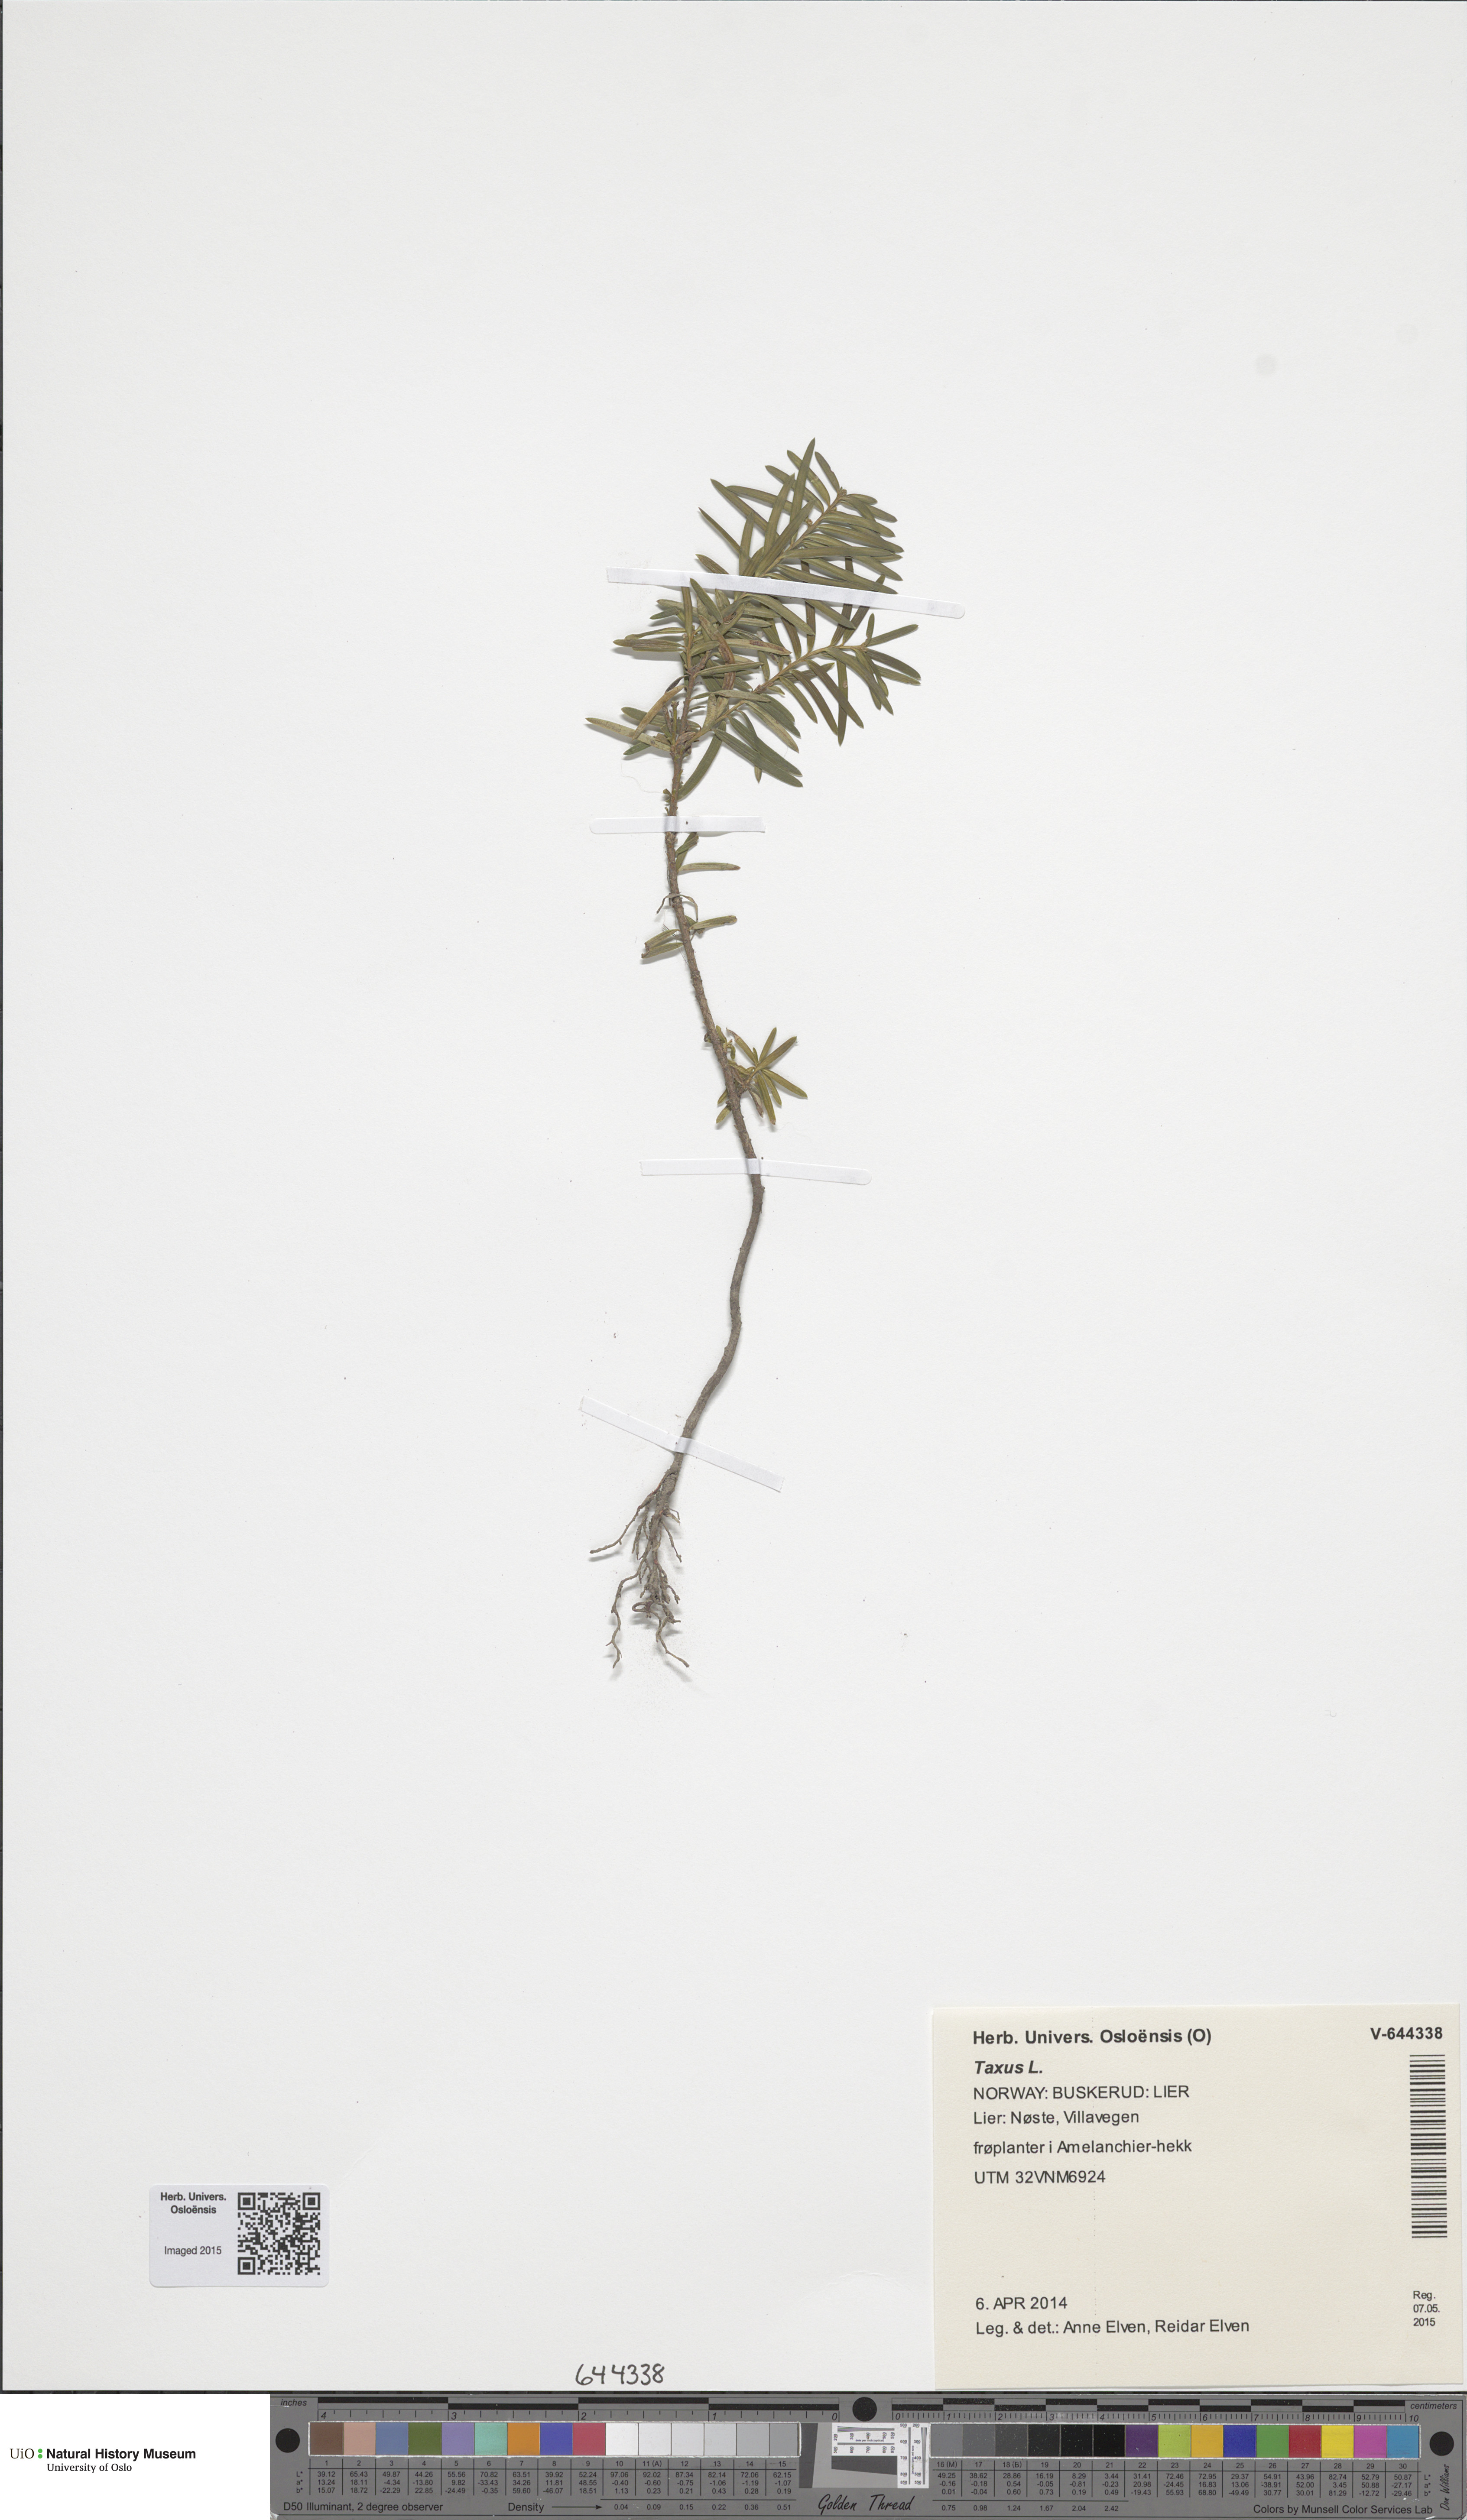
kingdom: Plantae
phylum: Tracheophyta
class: Pinopsida
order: Pinales
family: Taxaceae
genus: Taxus
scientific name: Taxus baccata
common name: Yew
